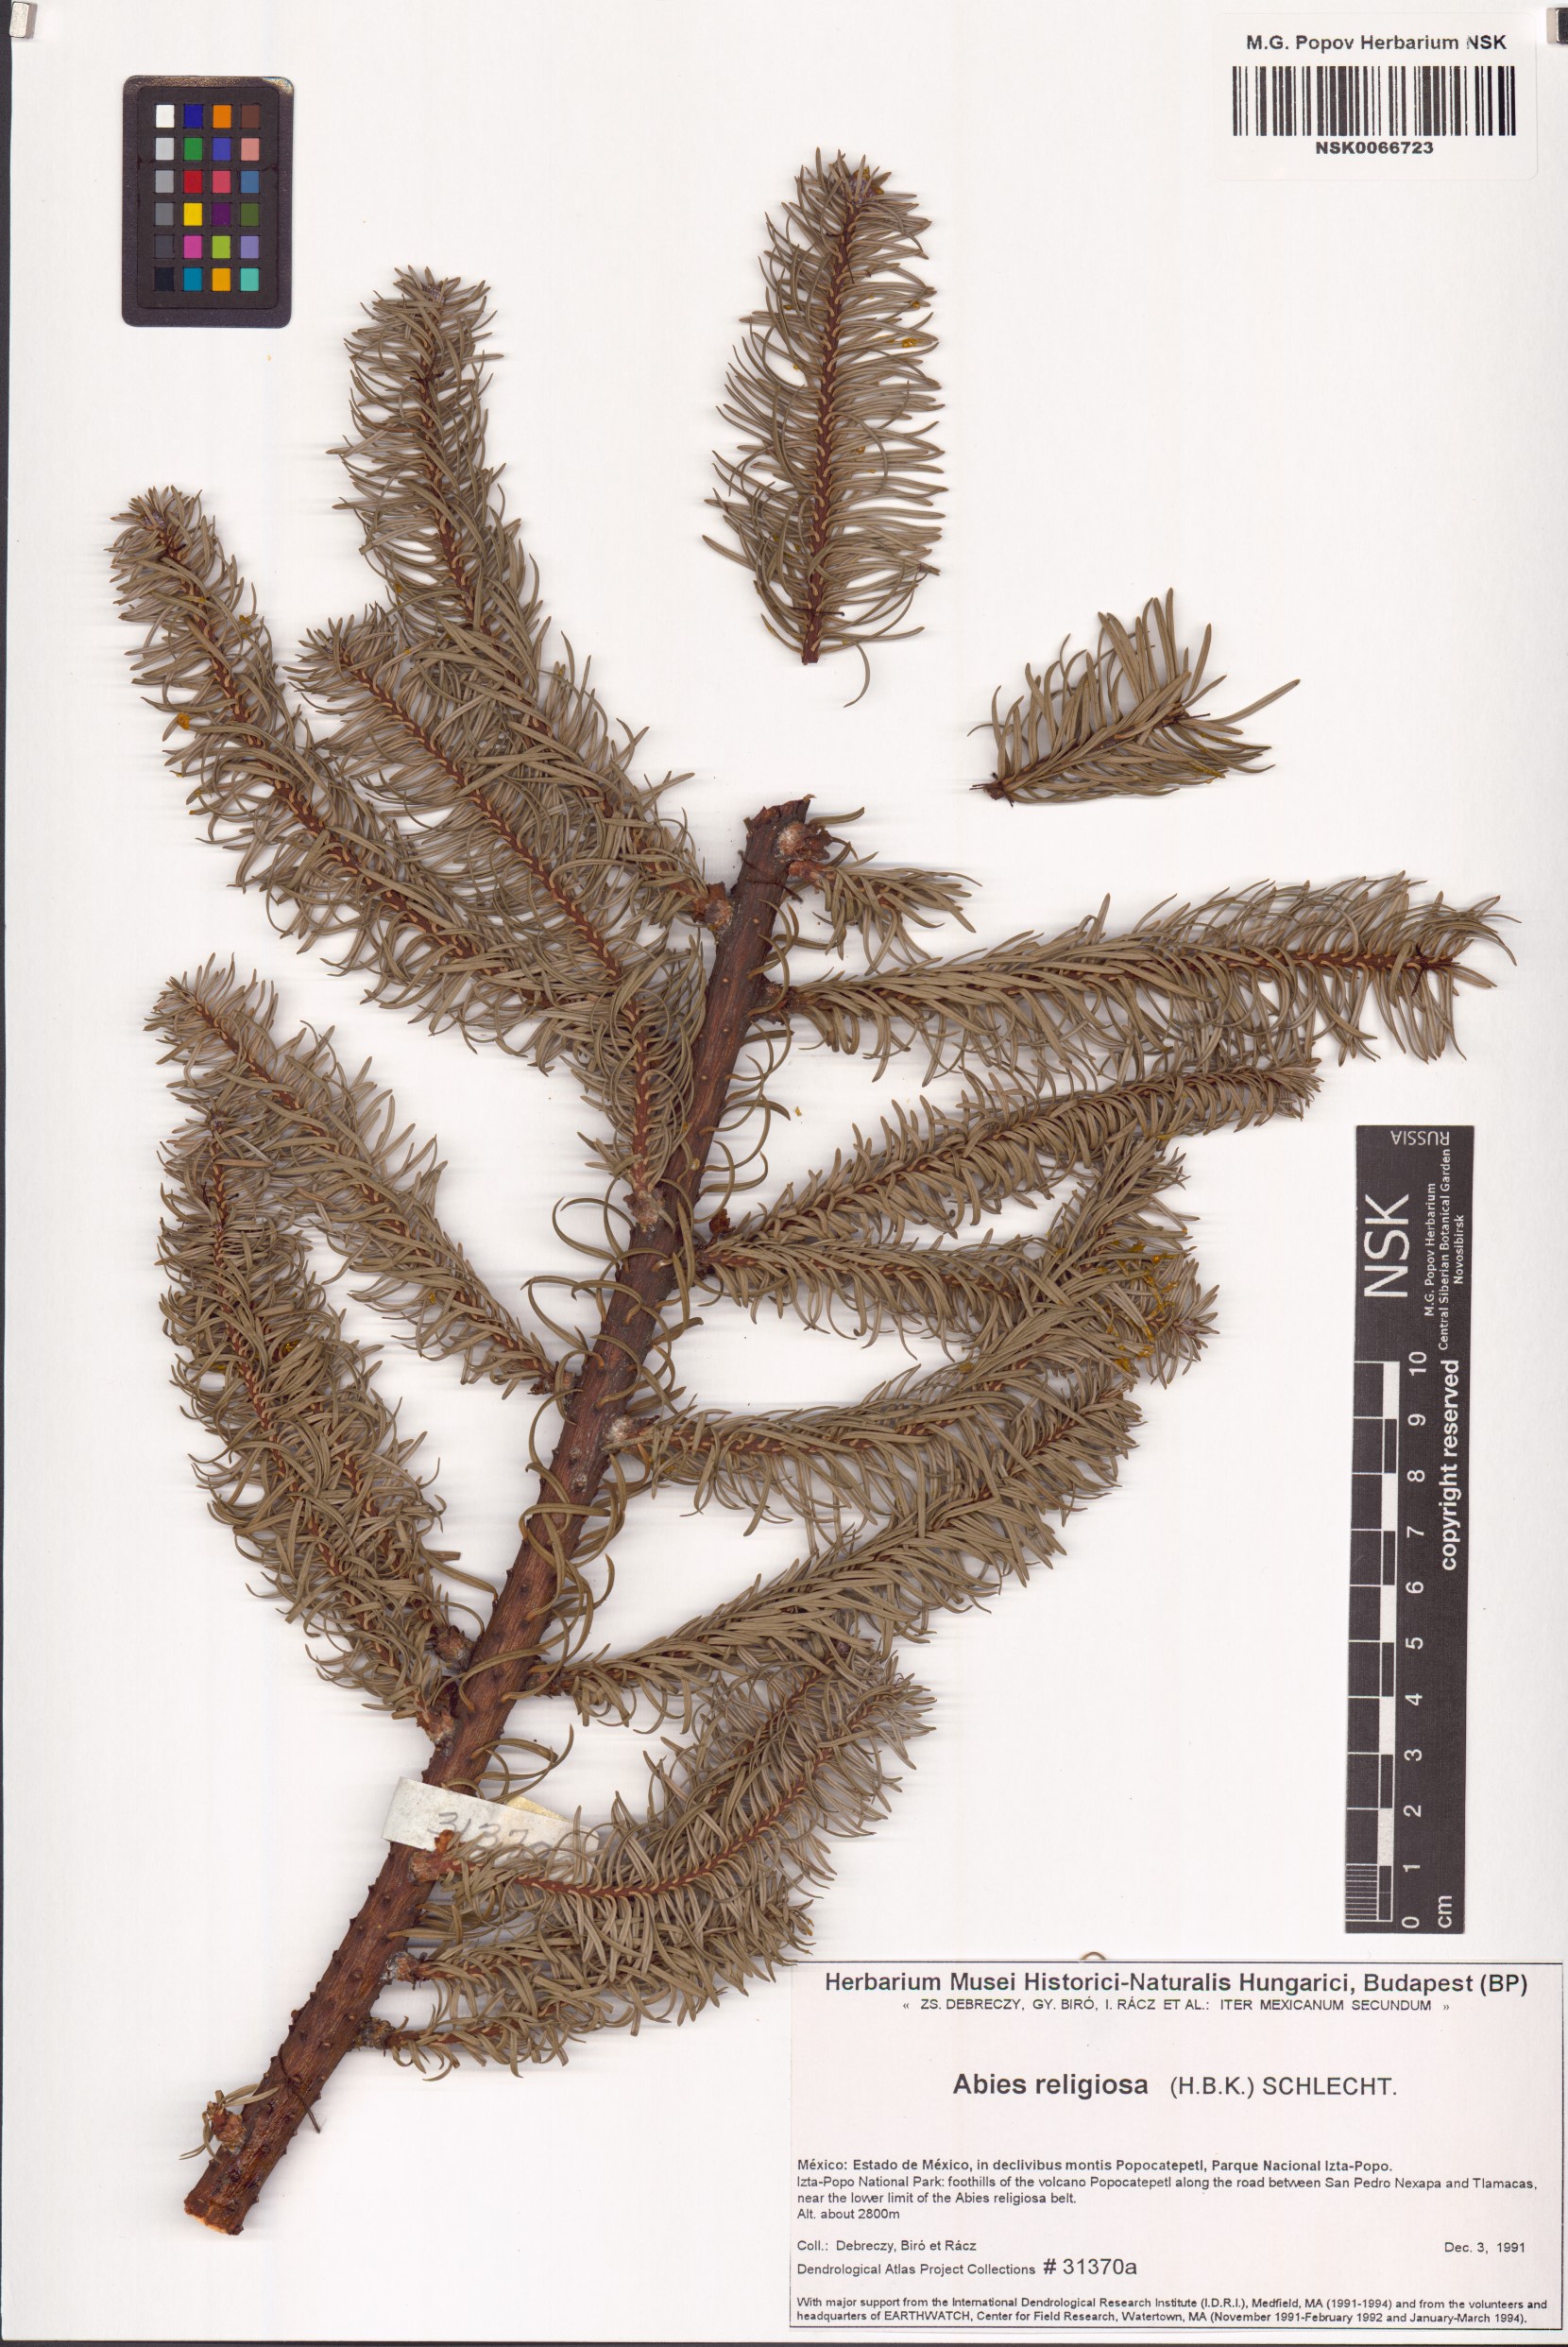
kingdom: Plantae
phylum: Tracheophyta
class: Pinopsida
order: Pinales
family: Pinaceae
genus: Abies
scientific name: Abies religiosa
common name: Sacred fir
